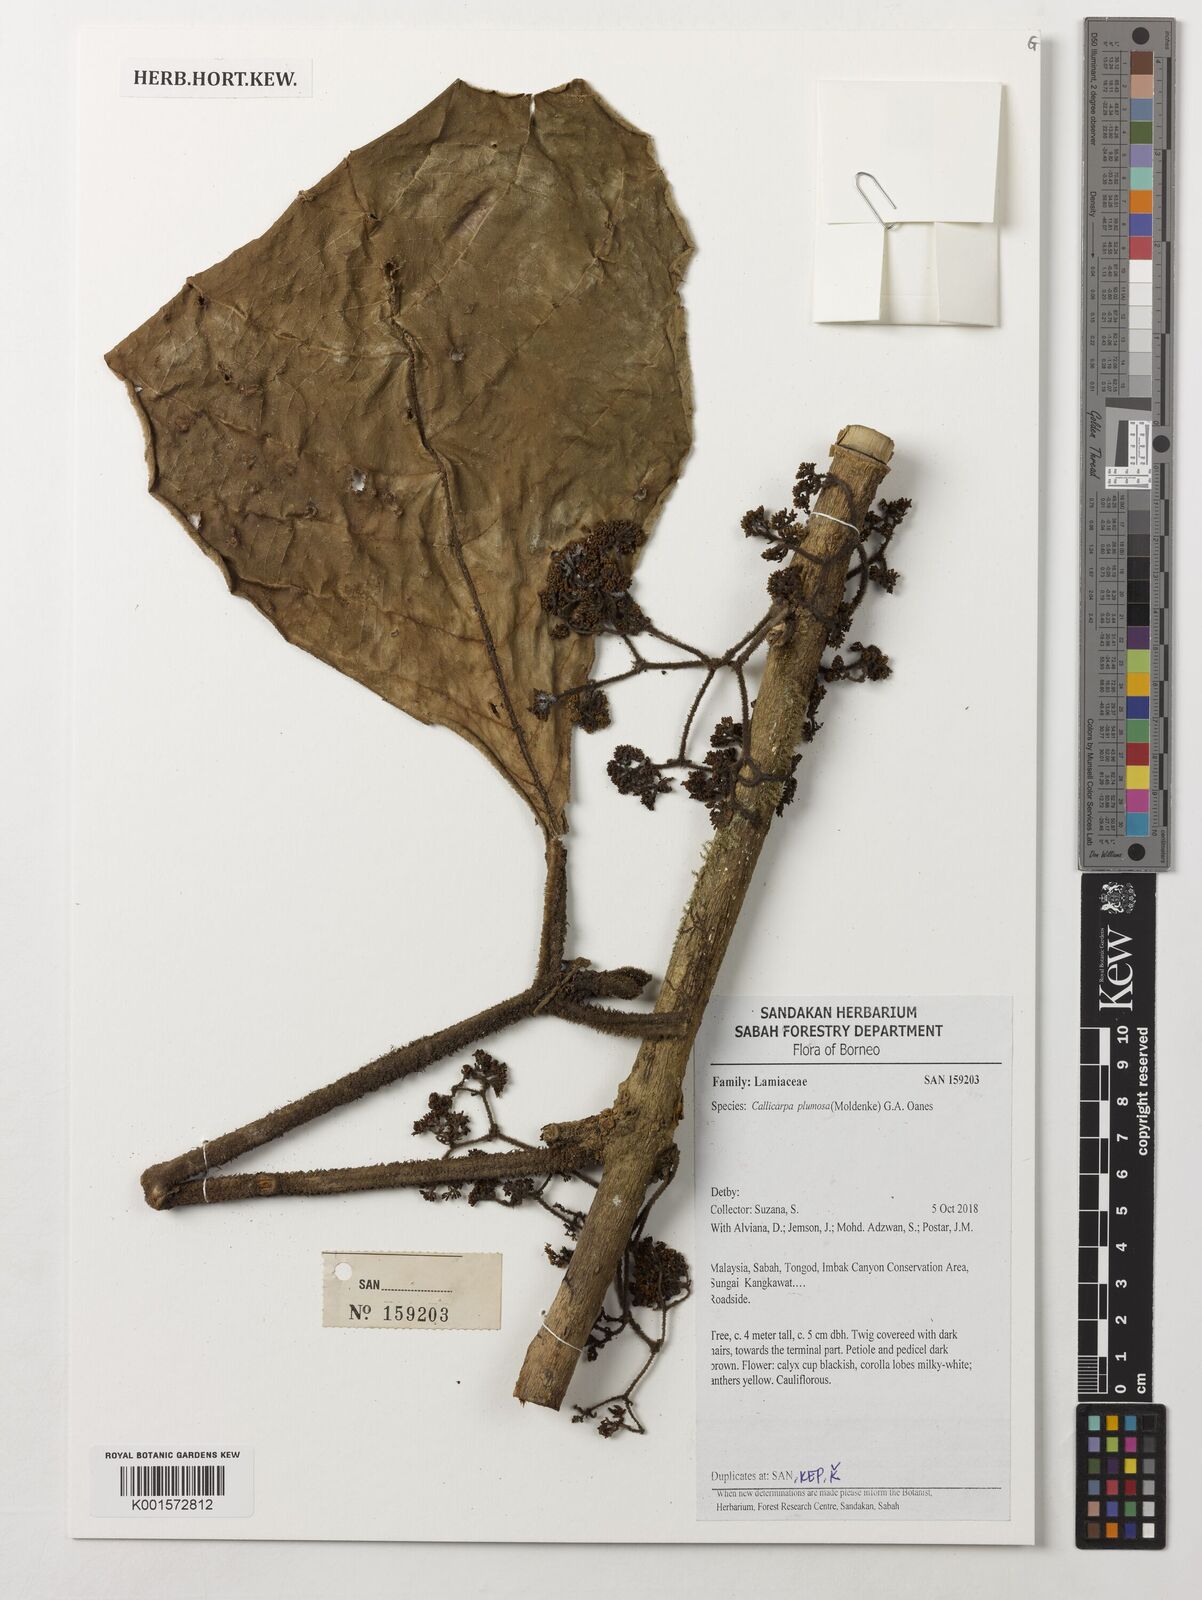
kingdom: Plantae
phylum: Tracheophyta
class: Magnoliopsida
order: Lamiales
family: Lamiaceae
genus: Callicarpa
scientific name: Callicarpa plumosa
